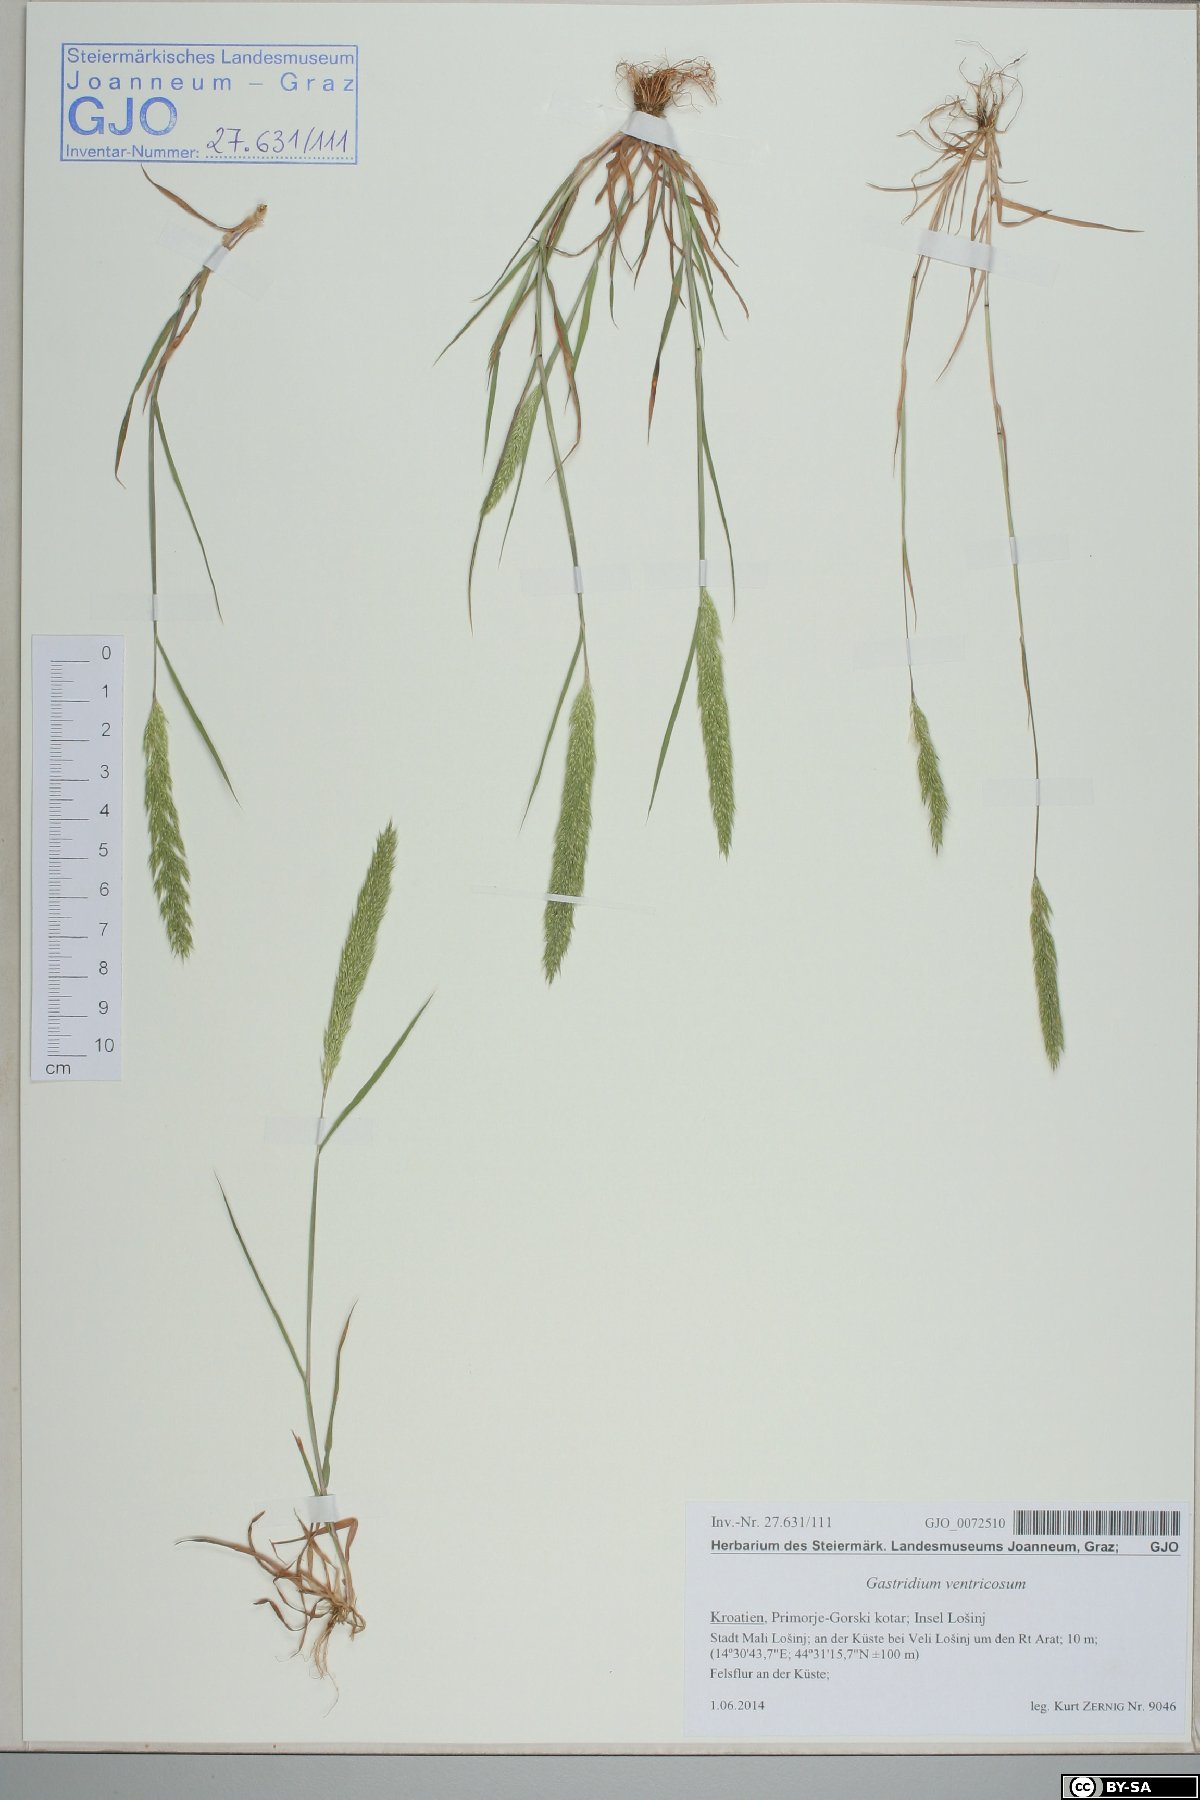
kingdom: Plantae
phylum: Tracheophyta
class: Liliopsida
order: Poales
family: Poaceae
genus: Gastridium
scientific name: Gastridium ventricosum
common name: Nit-grass
